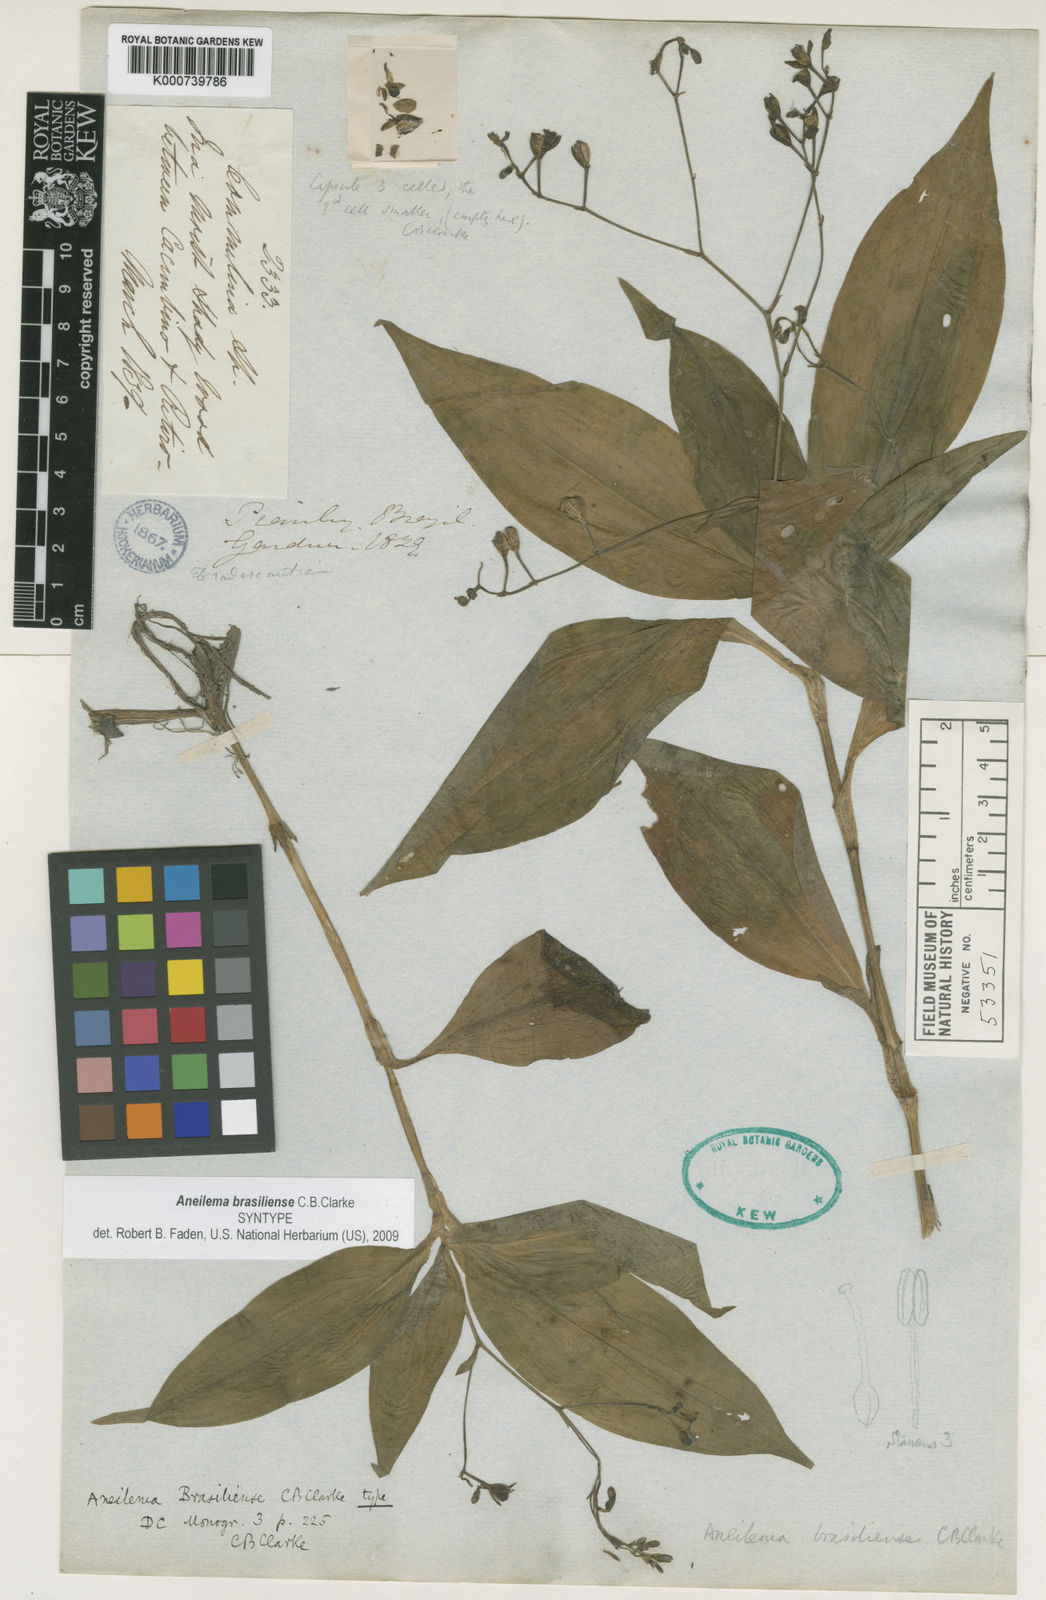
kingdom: Plantae
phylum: Tracheophyta
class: Liliopsida
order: Commelinales
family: Commelinaceae
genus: Aneilema
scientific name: Aneilema brasiliense
